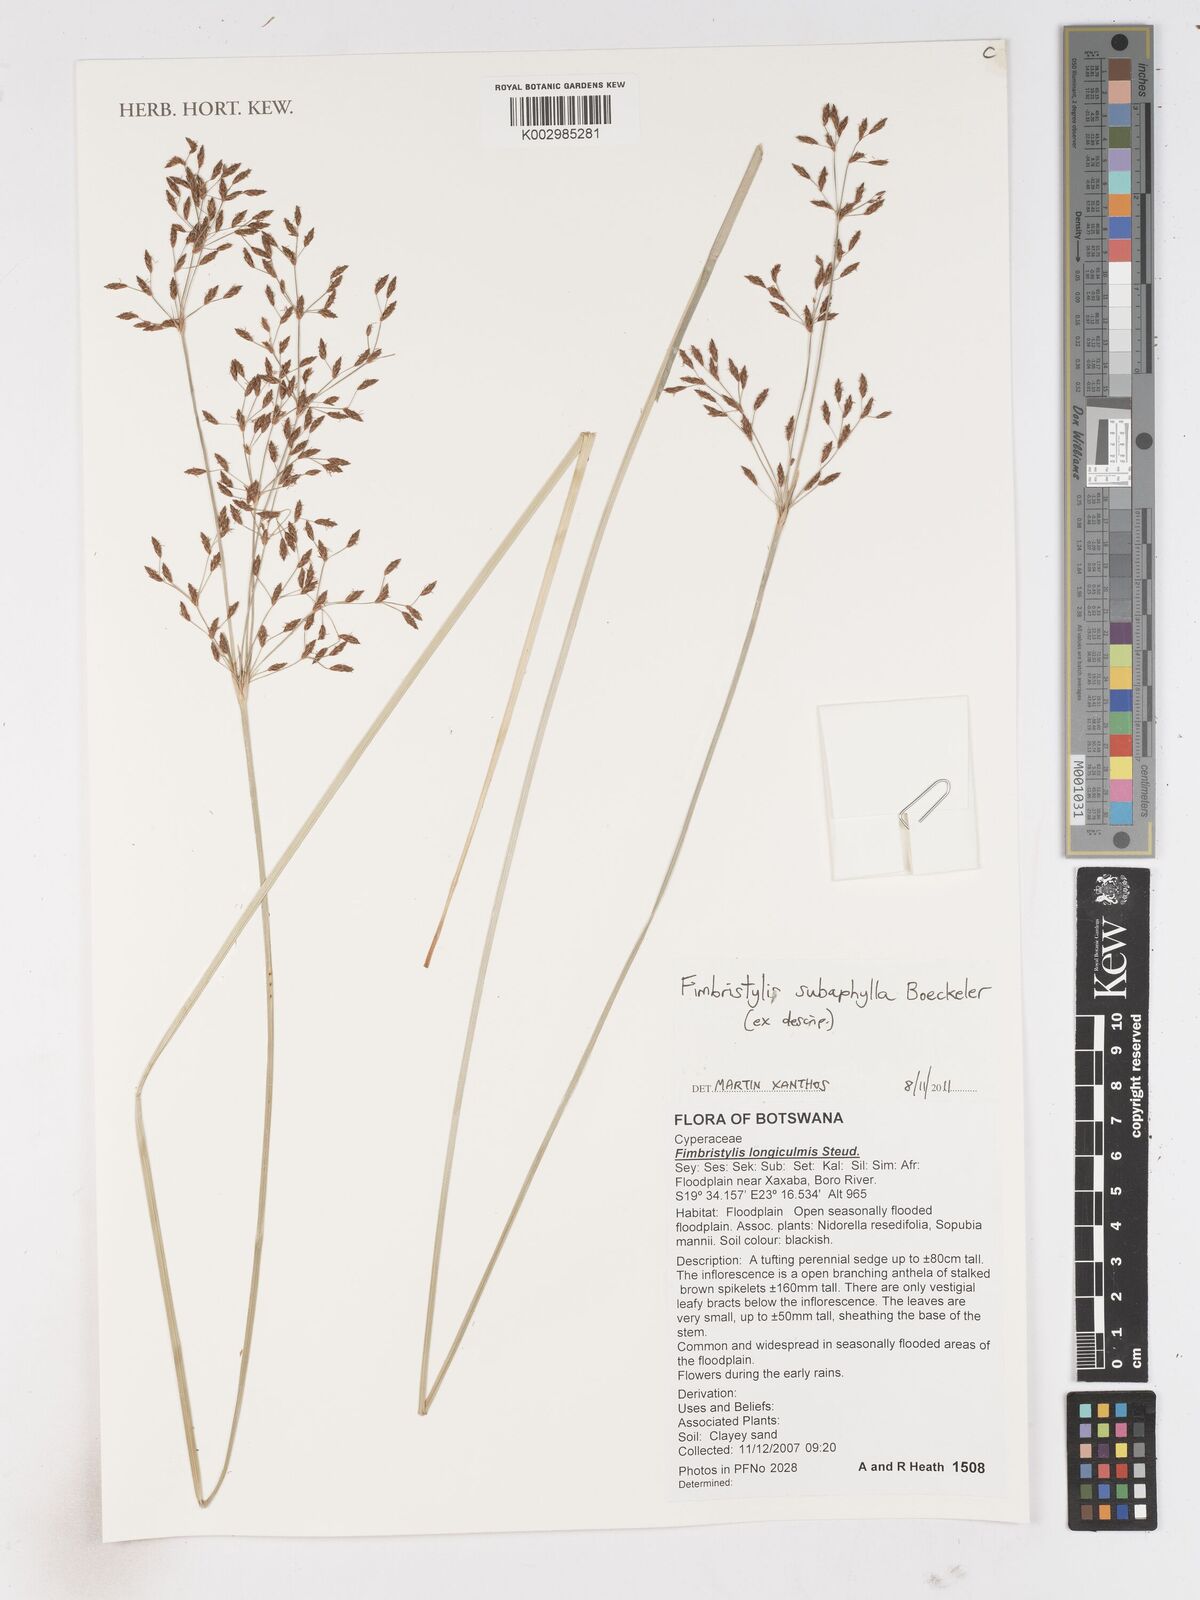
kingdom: Plantae
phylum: Tracheophyta
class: Liliopsida
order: Poales
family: Cyperaceae
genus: Fimbristylis
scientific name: Fimbristylis subaphylla
